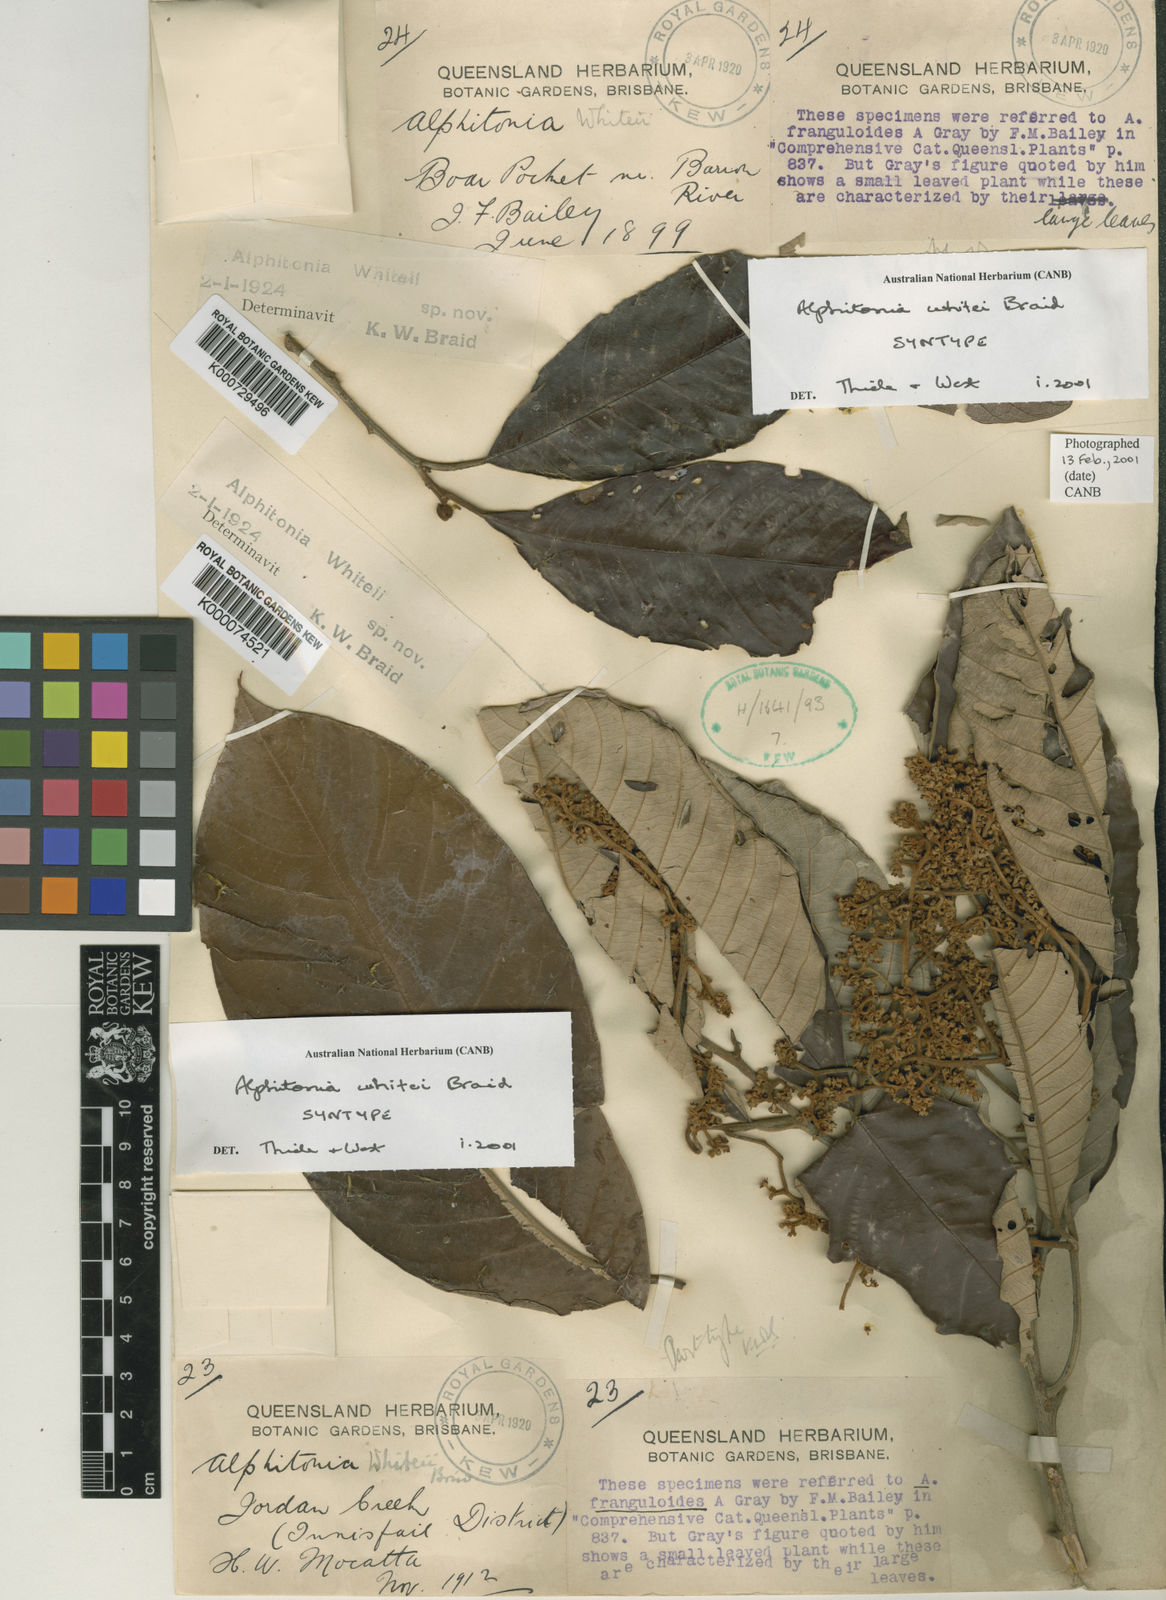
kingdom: Plantae
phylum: Tracheophyta
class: Magnoliopsida
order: Rosales
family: Rhamnaceae
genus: Alphitonia
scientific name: Alphitonia whitei
